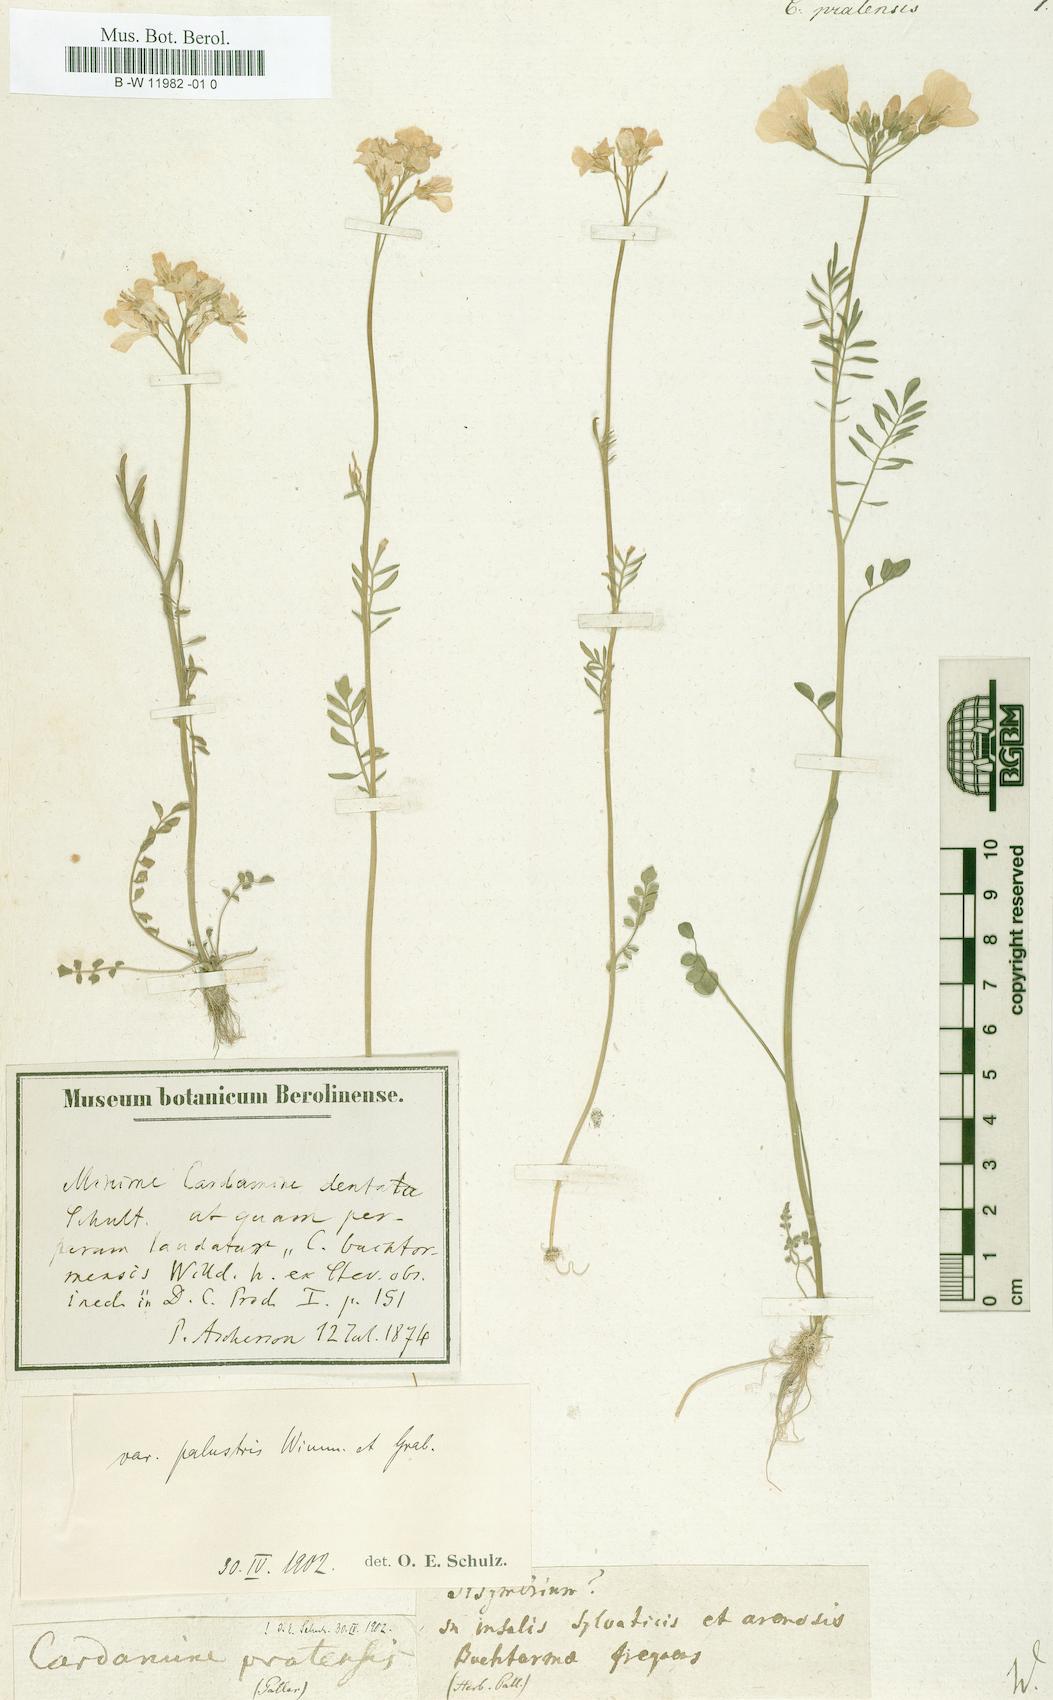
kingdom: Plantae
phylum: Tracheophyta
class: Magnoliopsida
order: Brassicales
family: Brassicaceae
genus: Cardamine
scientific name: Cardamine pratensis
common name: Cuckoo flower
